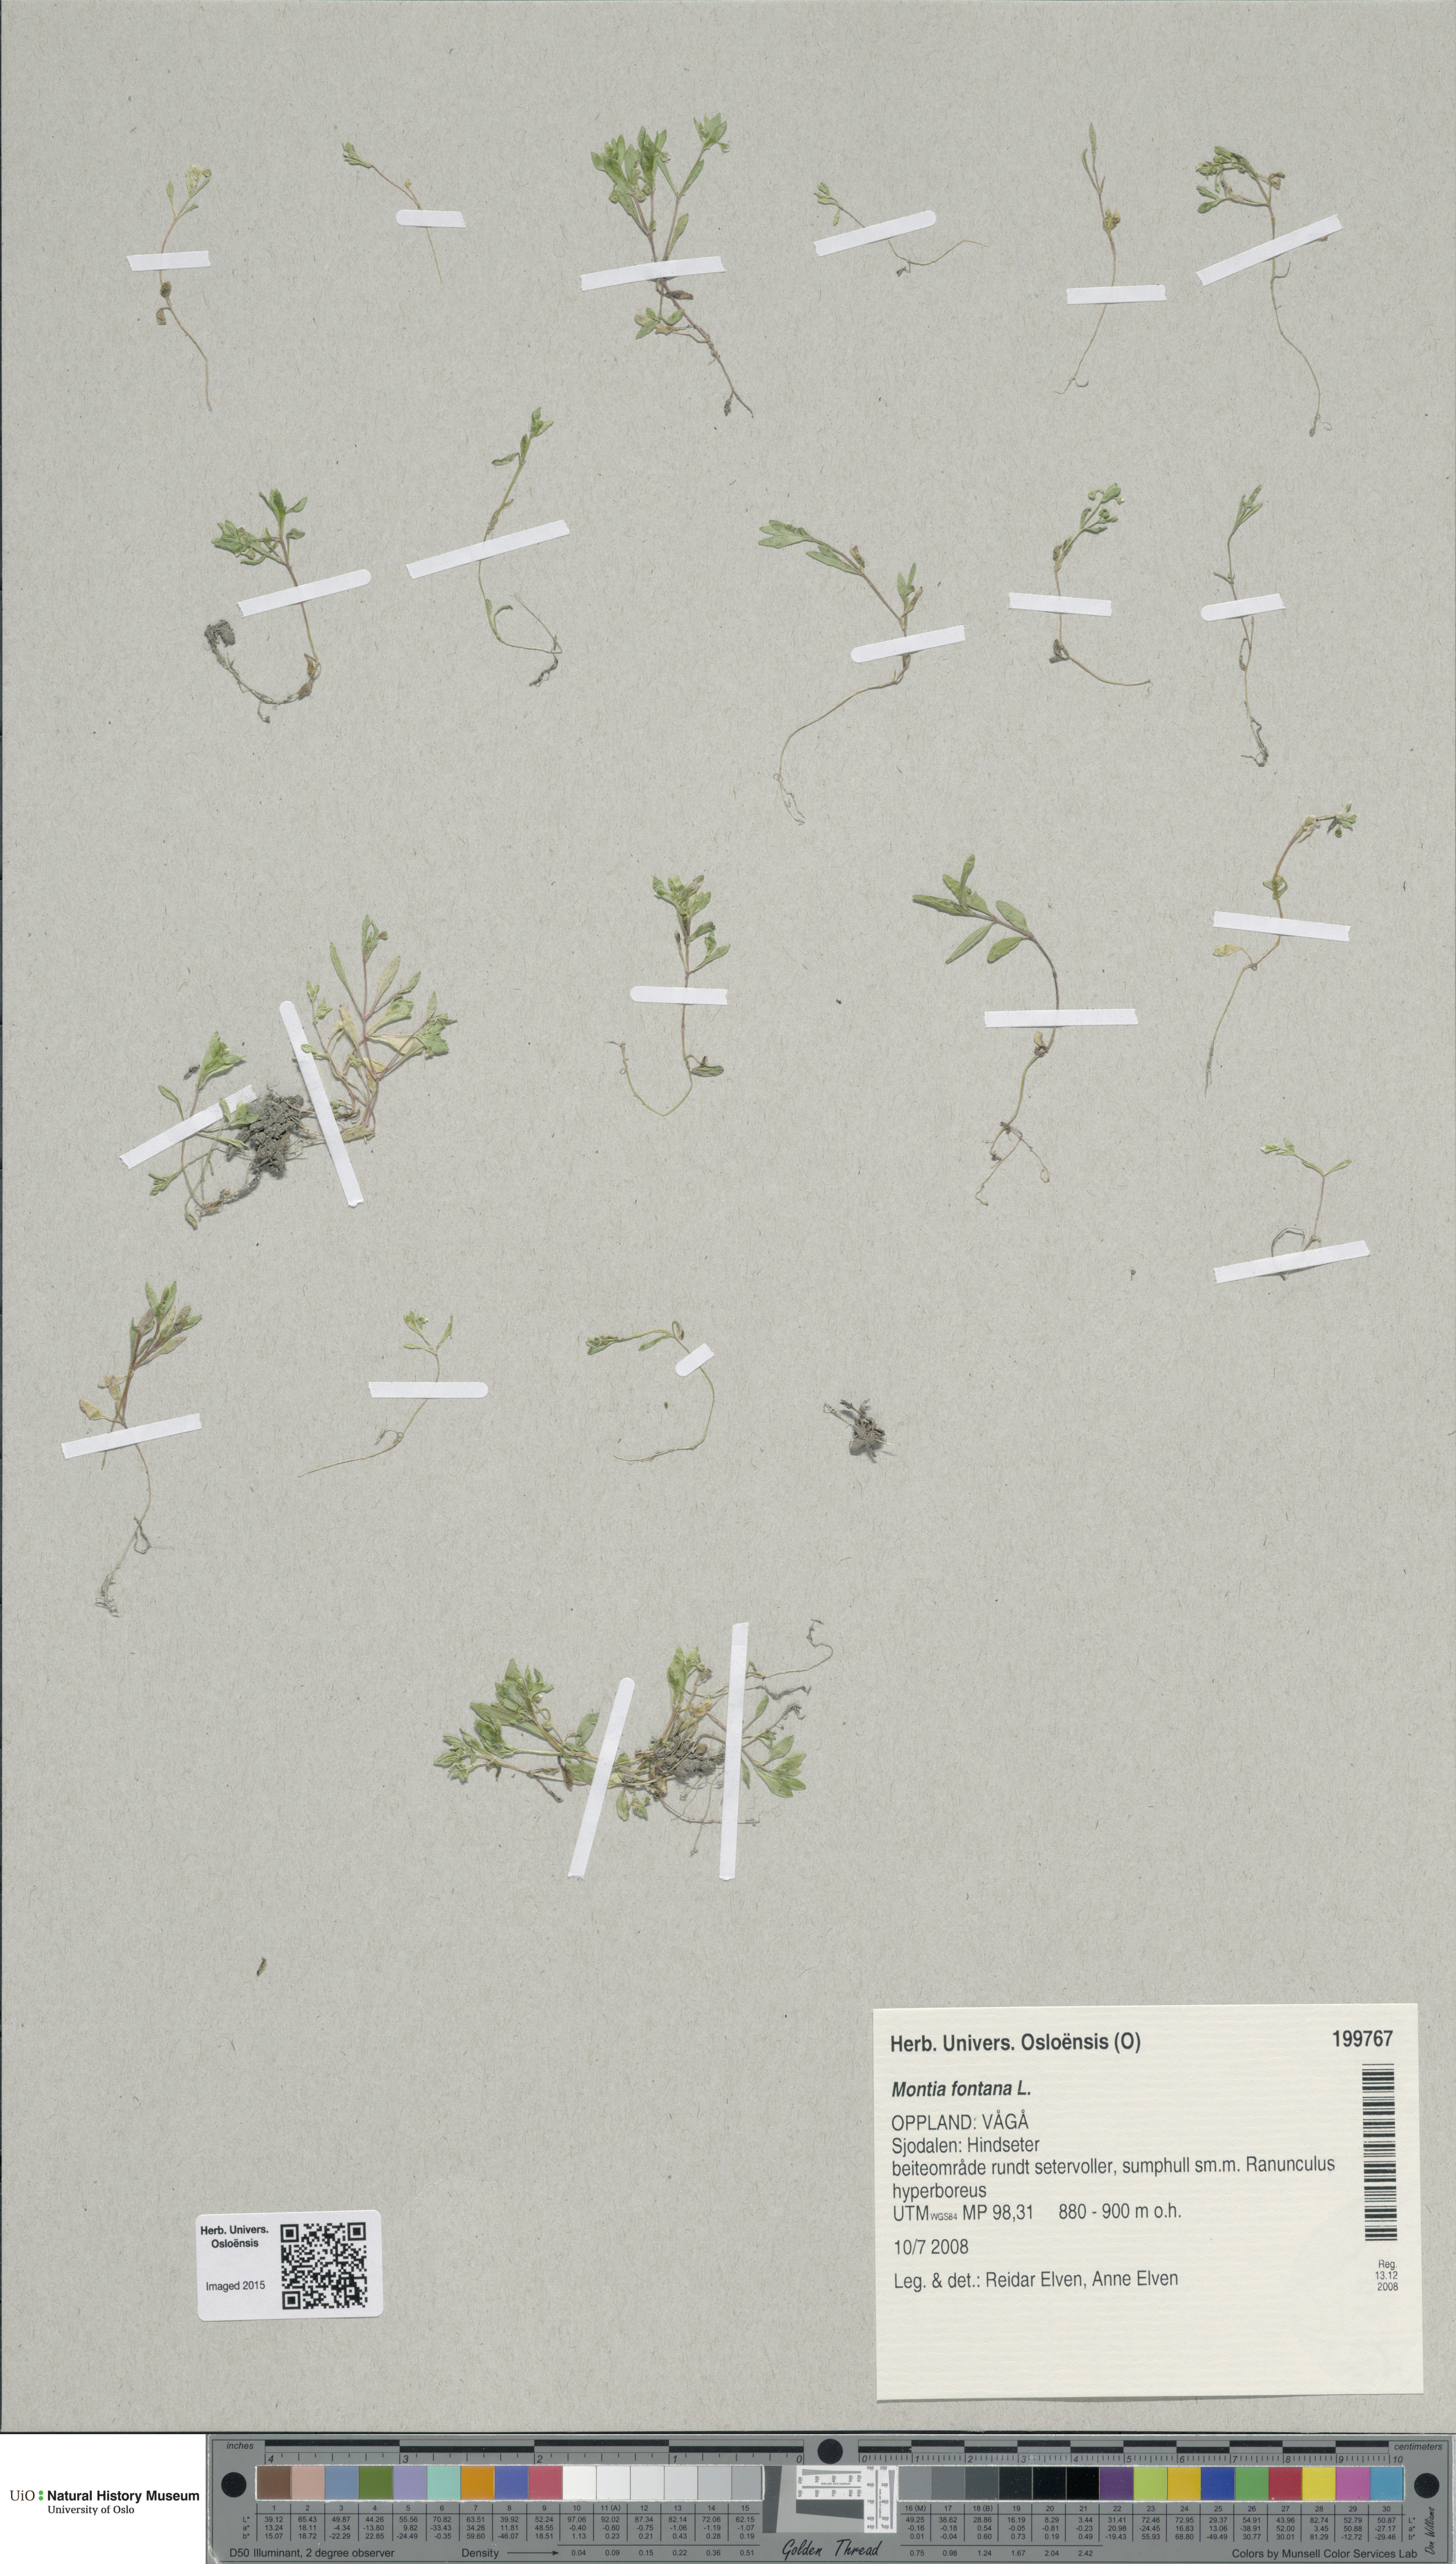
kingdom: Plantae
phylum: Tracheophyta
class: Magnoliopsida
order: Caryophyllales
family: Montiaceae
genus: Montia
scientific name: Montia fontana
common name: Blinks
